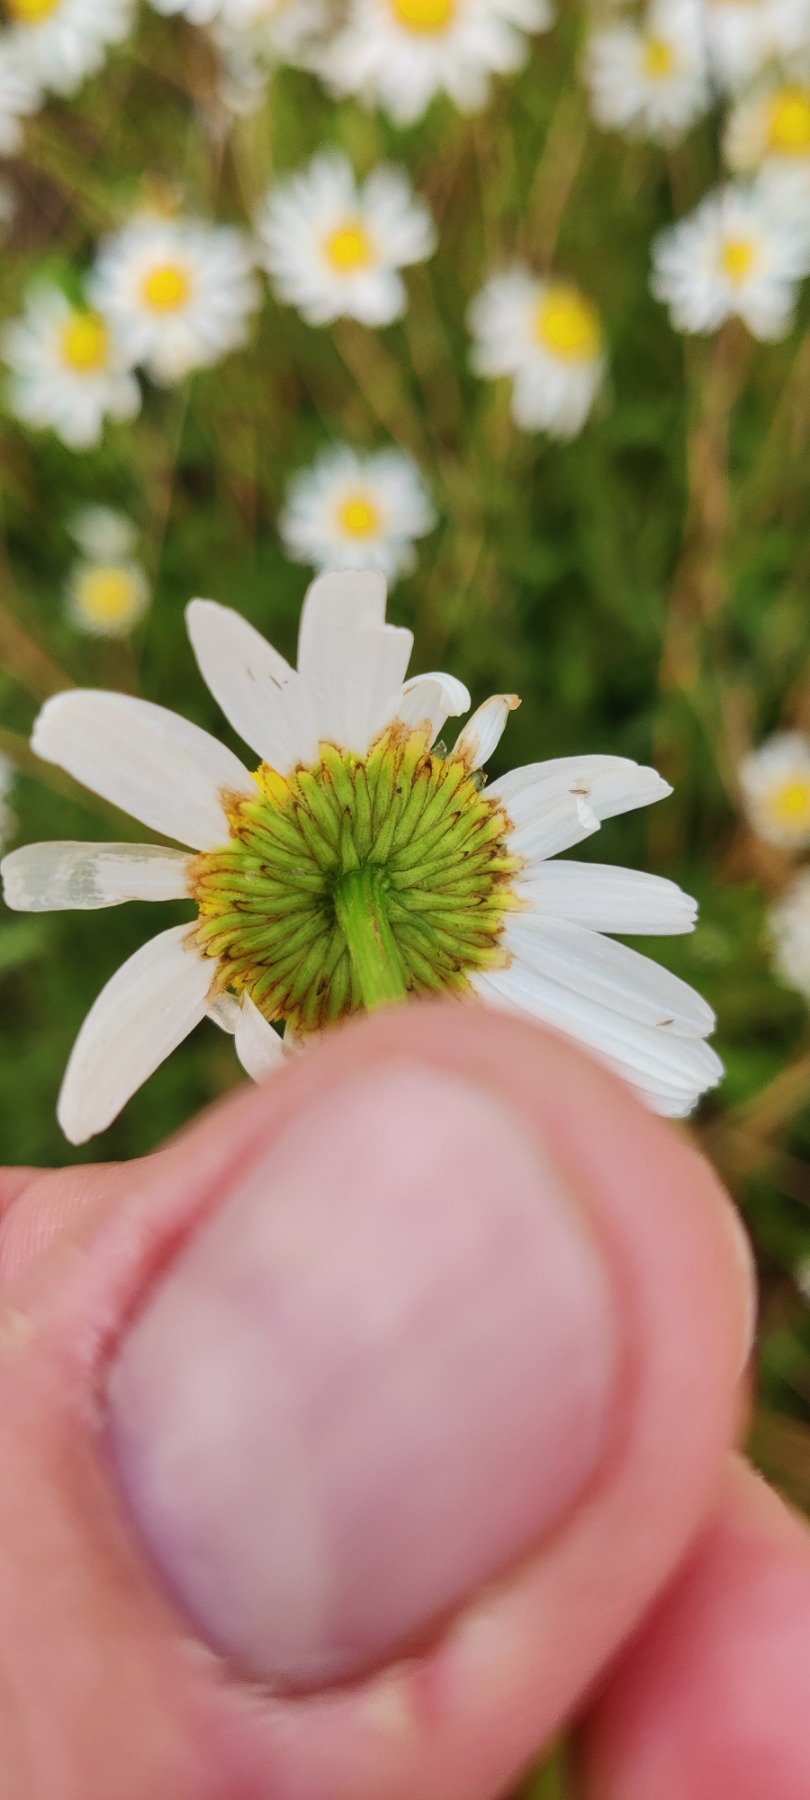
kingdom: Plantae
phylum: Tracheophyta
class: Magnoliopsida
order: Asterales
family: Asteraceae
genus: Leucanthemum
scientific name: Leucanthemum vulgare
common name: Hvid okseøje
